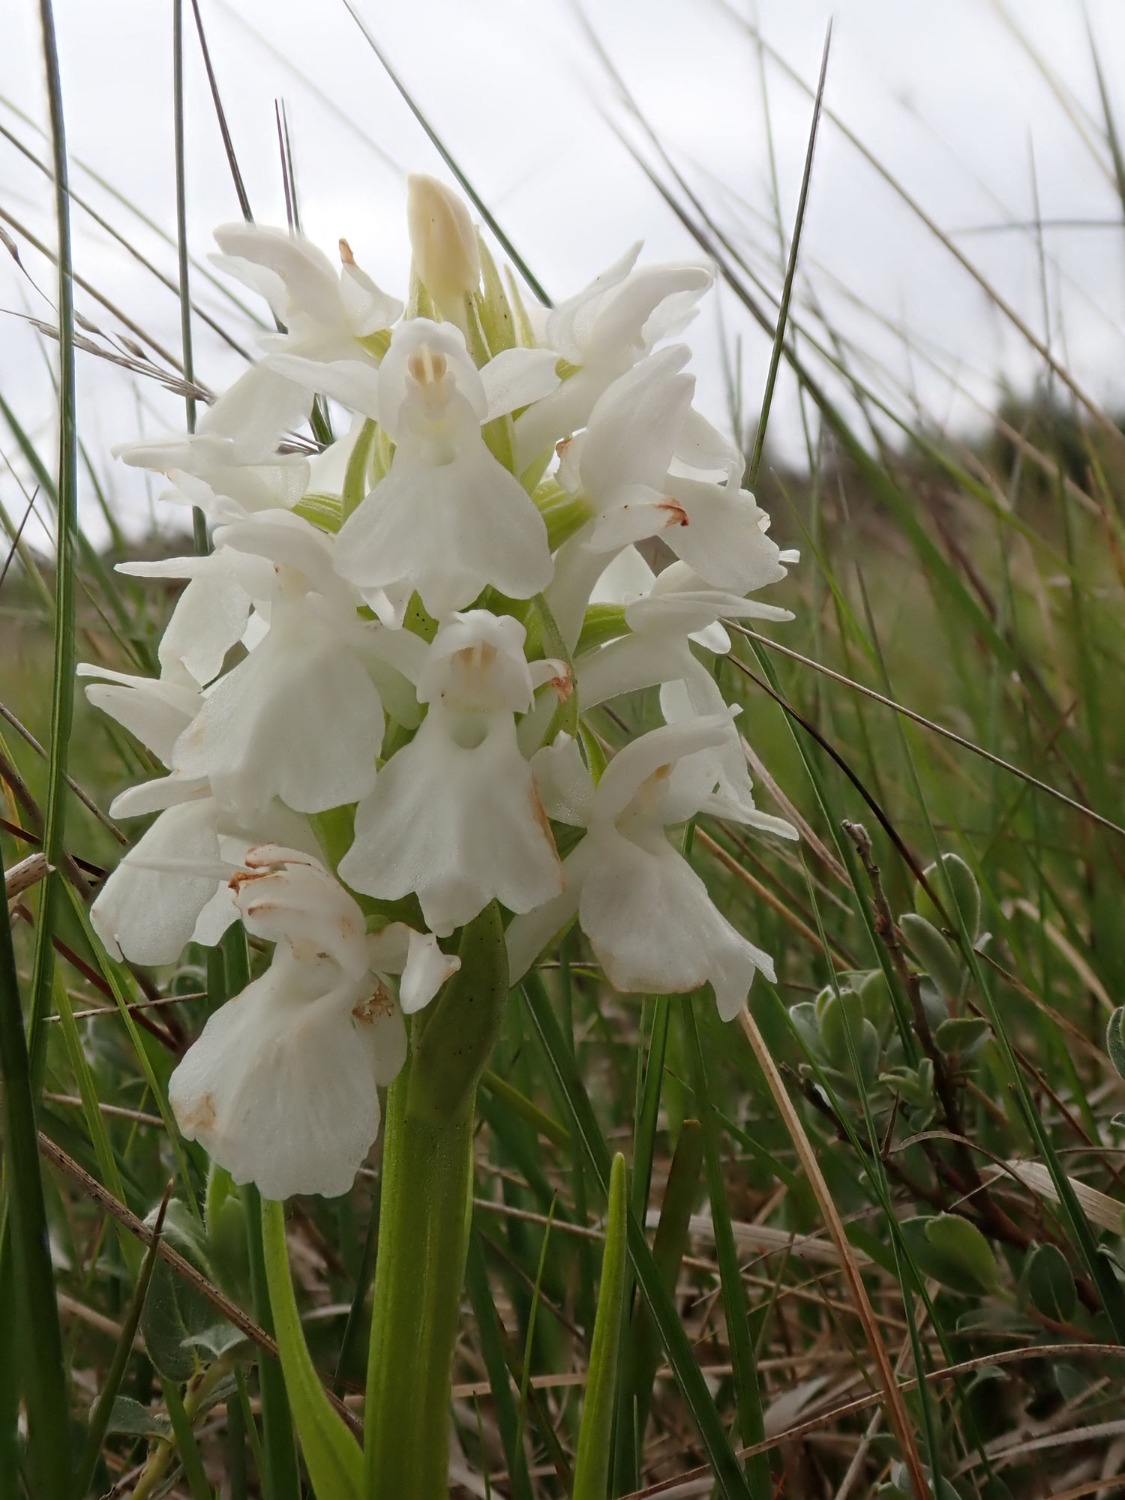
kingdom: Plantae
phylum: Tracheophyta
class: Liliopsida
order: Asparagales
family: Orchidaceae
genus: Dactylorhiza
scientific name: Dactylorhiza majalis
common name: Thy-gøgeurt
